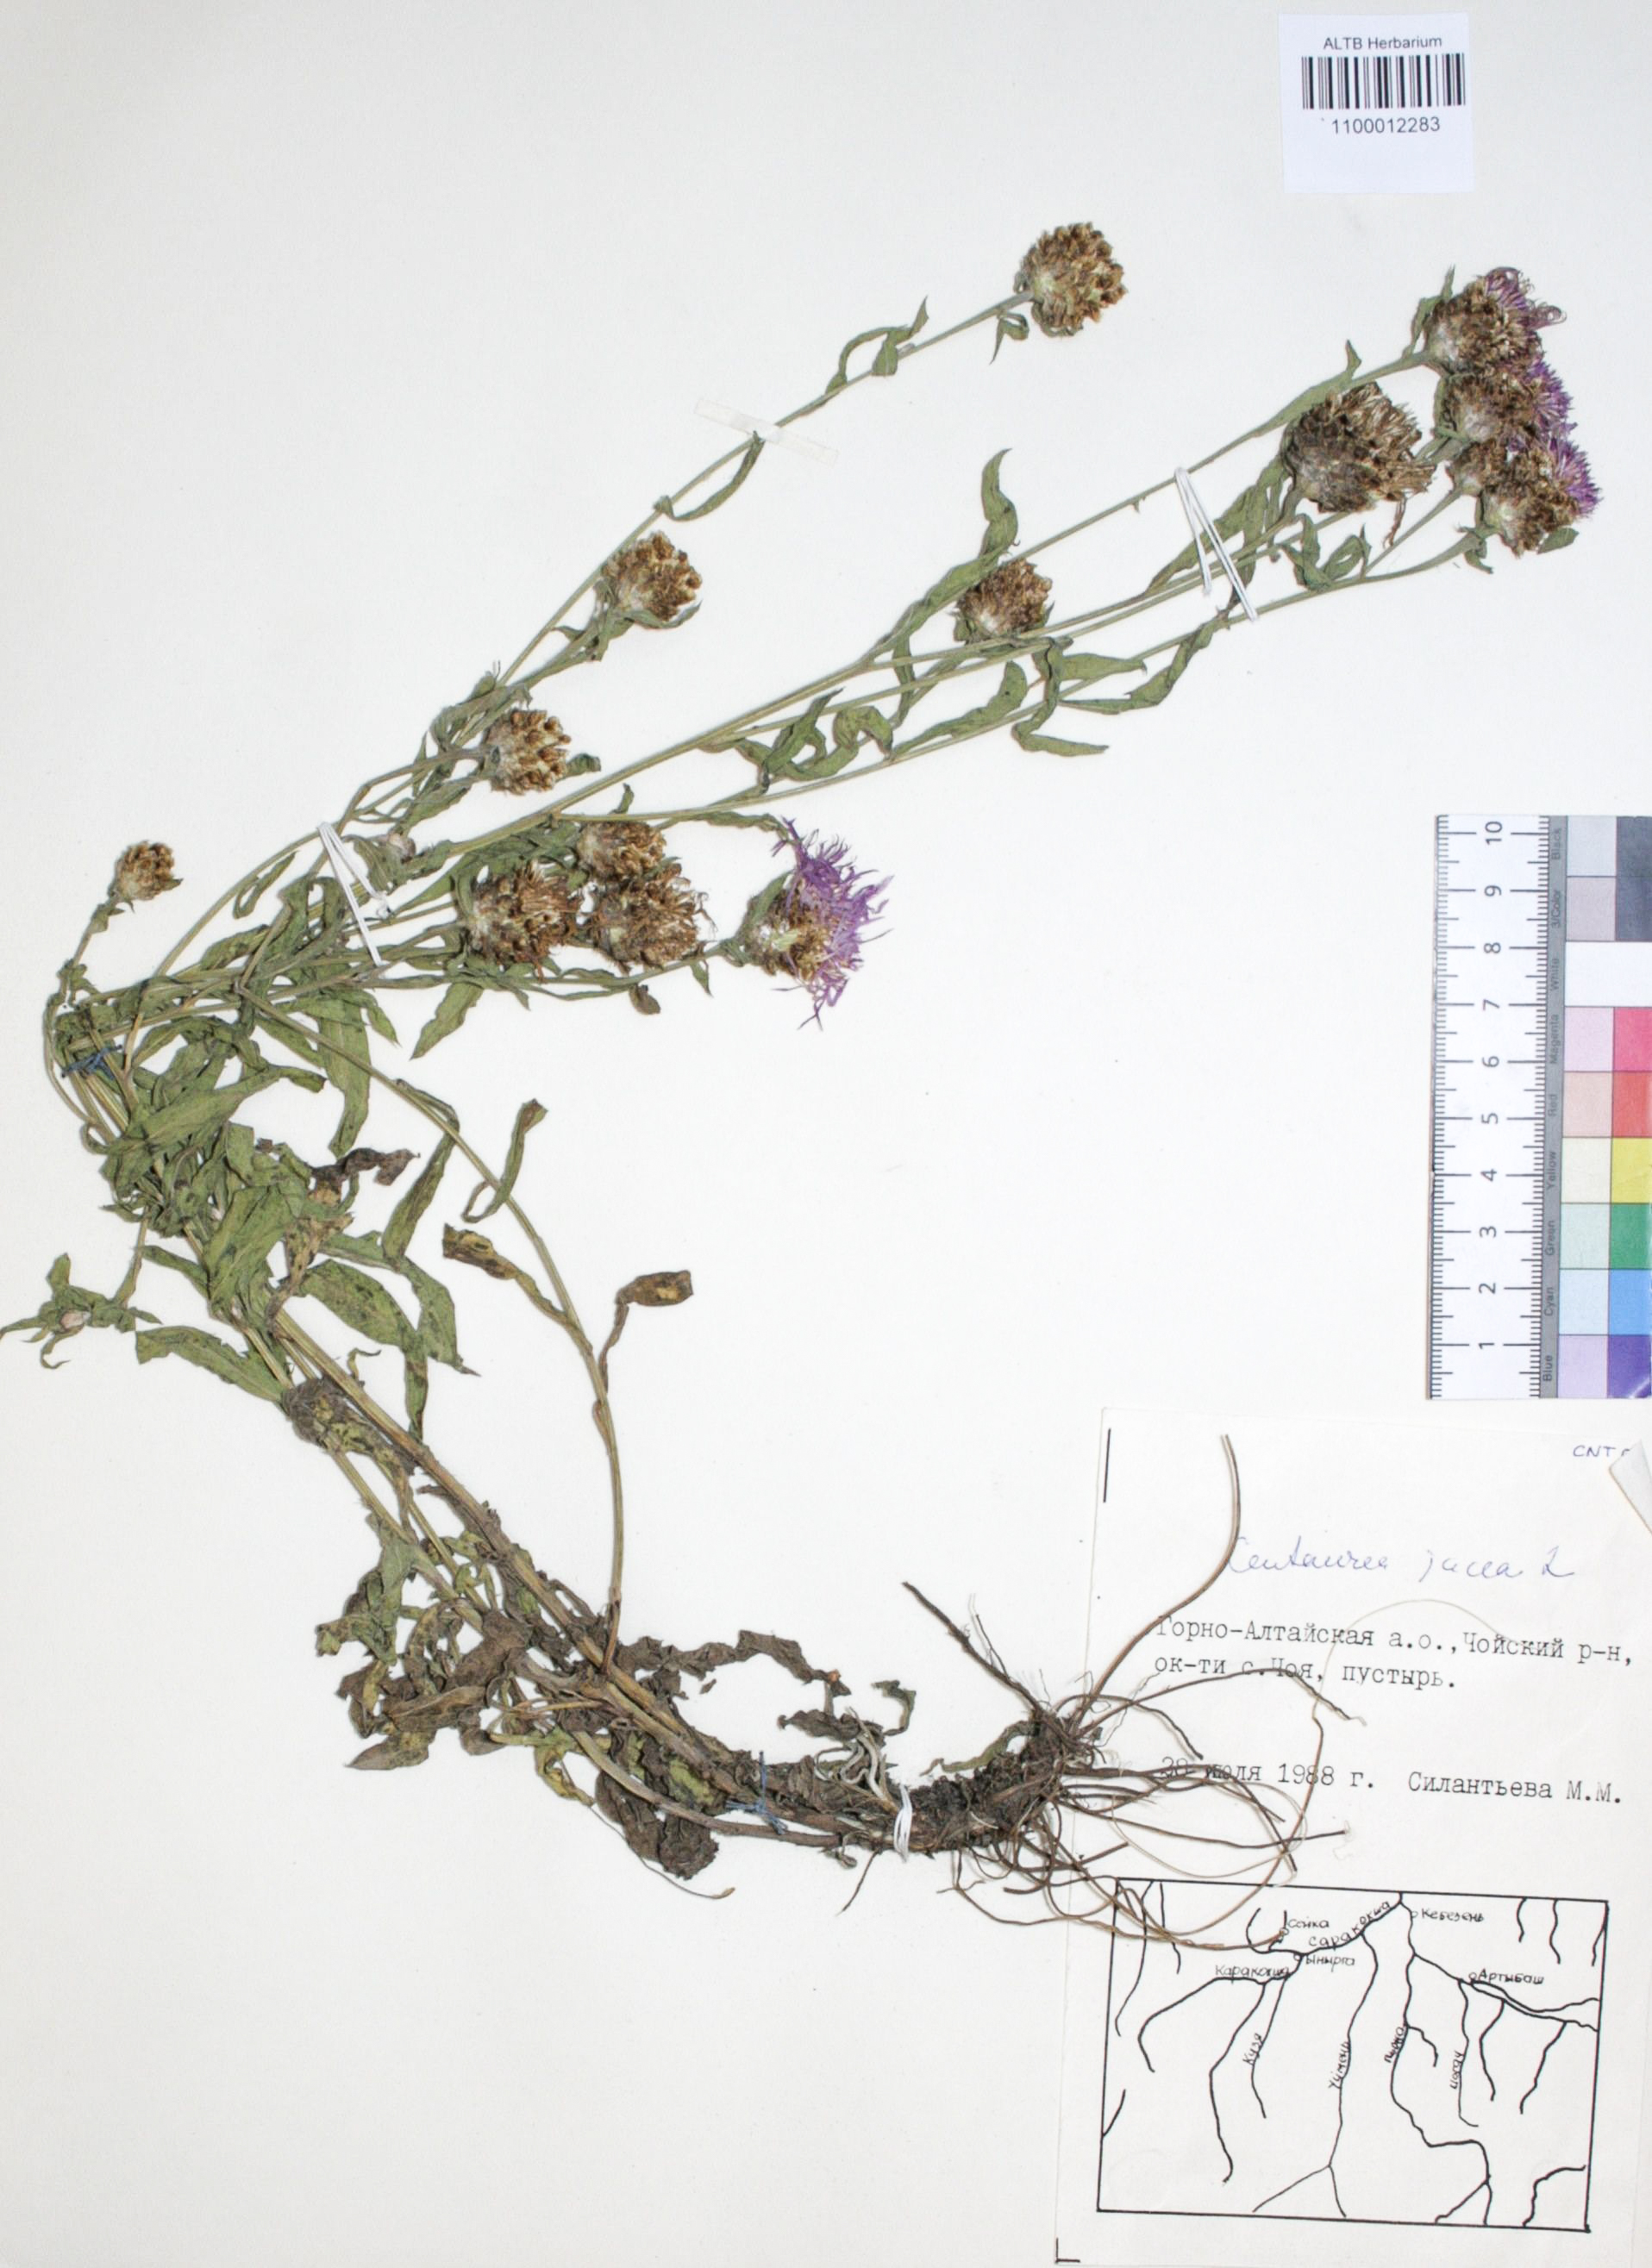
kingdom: Plantae
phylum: Tracheophyta
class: Magnoliopsida
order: Asterales
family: Asteraceae
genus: Centaurea
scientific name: Centaurea jacea
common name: Brown knapweed
